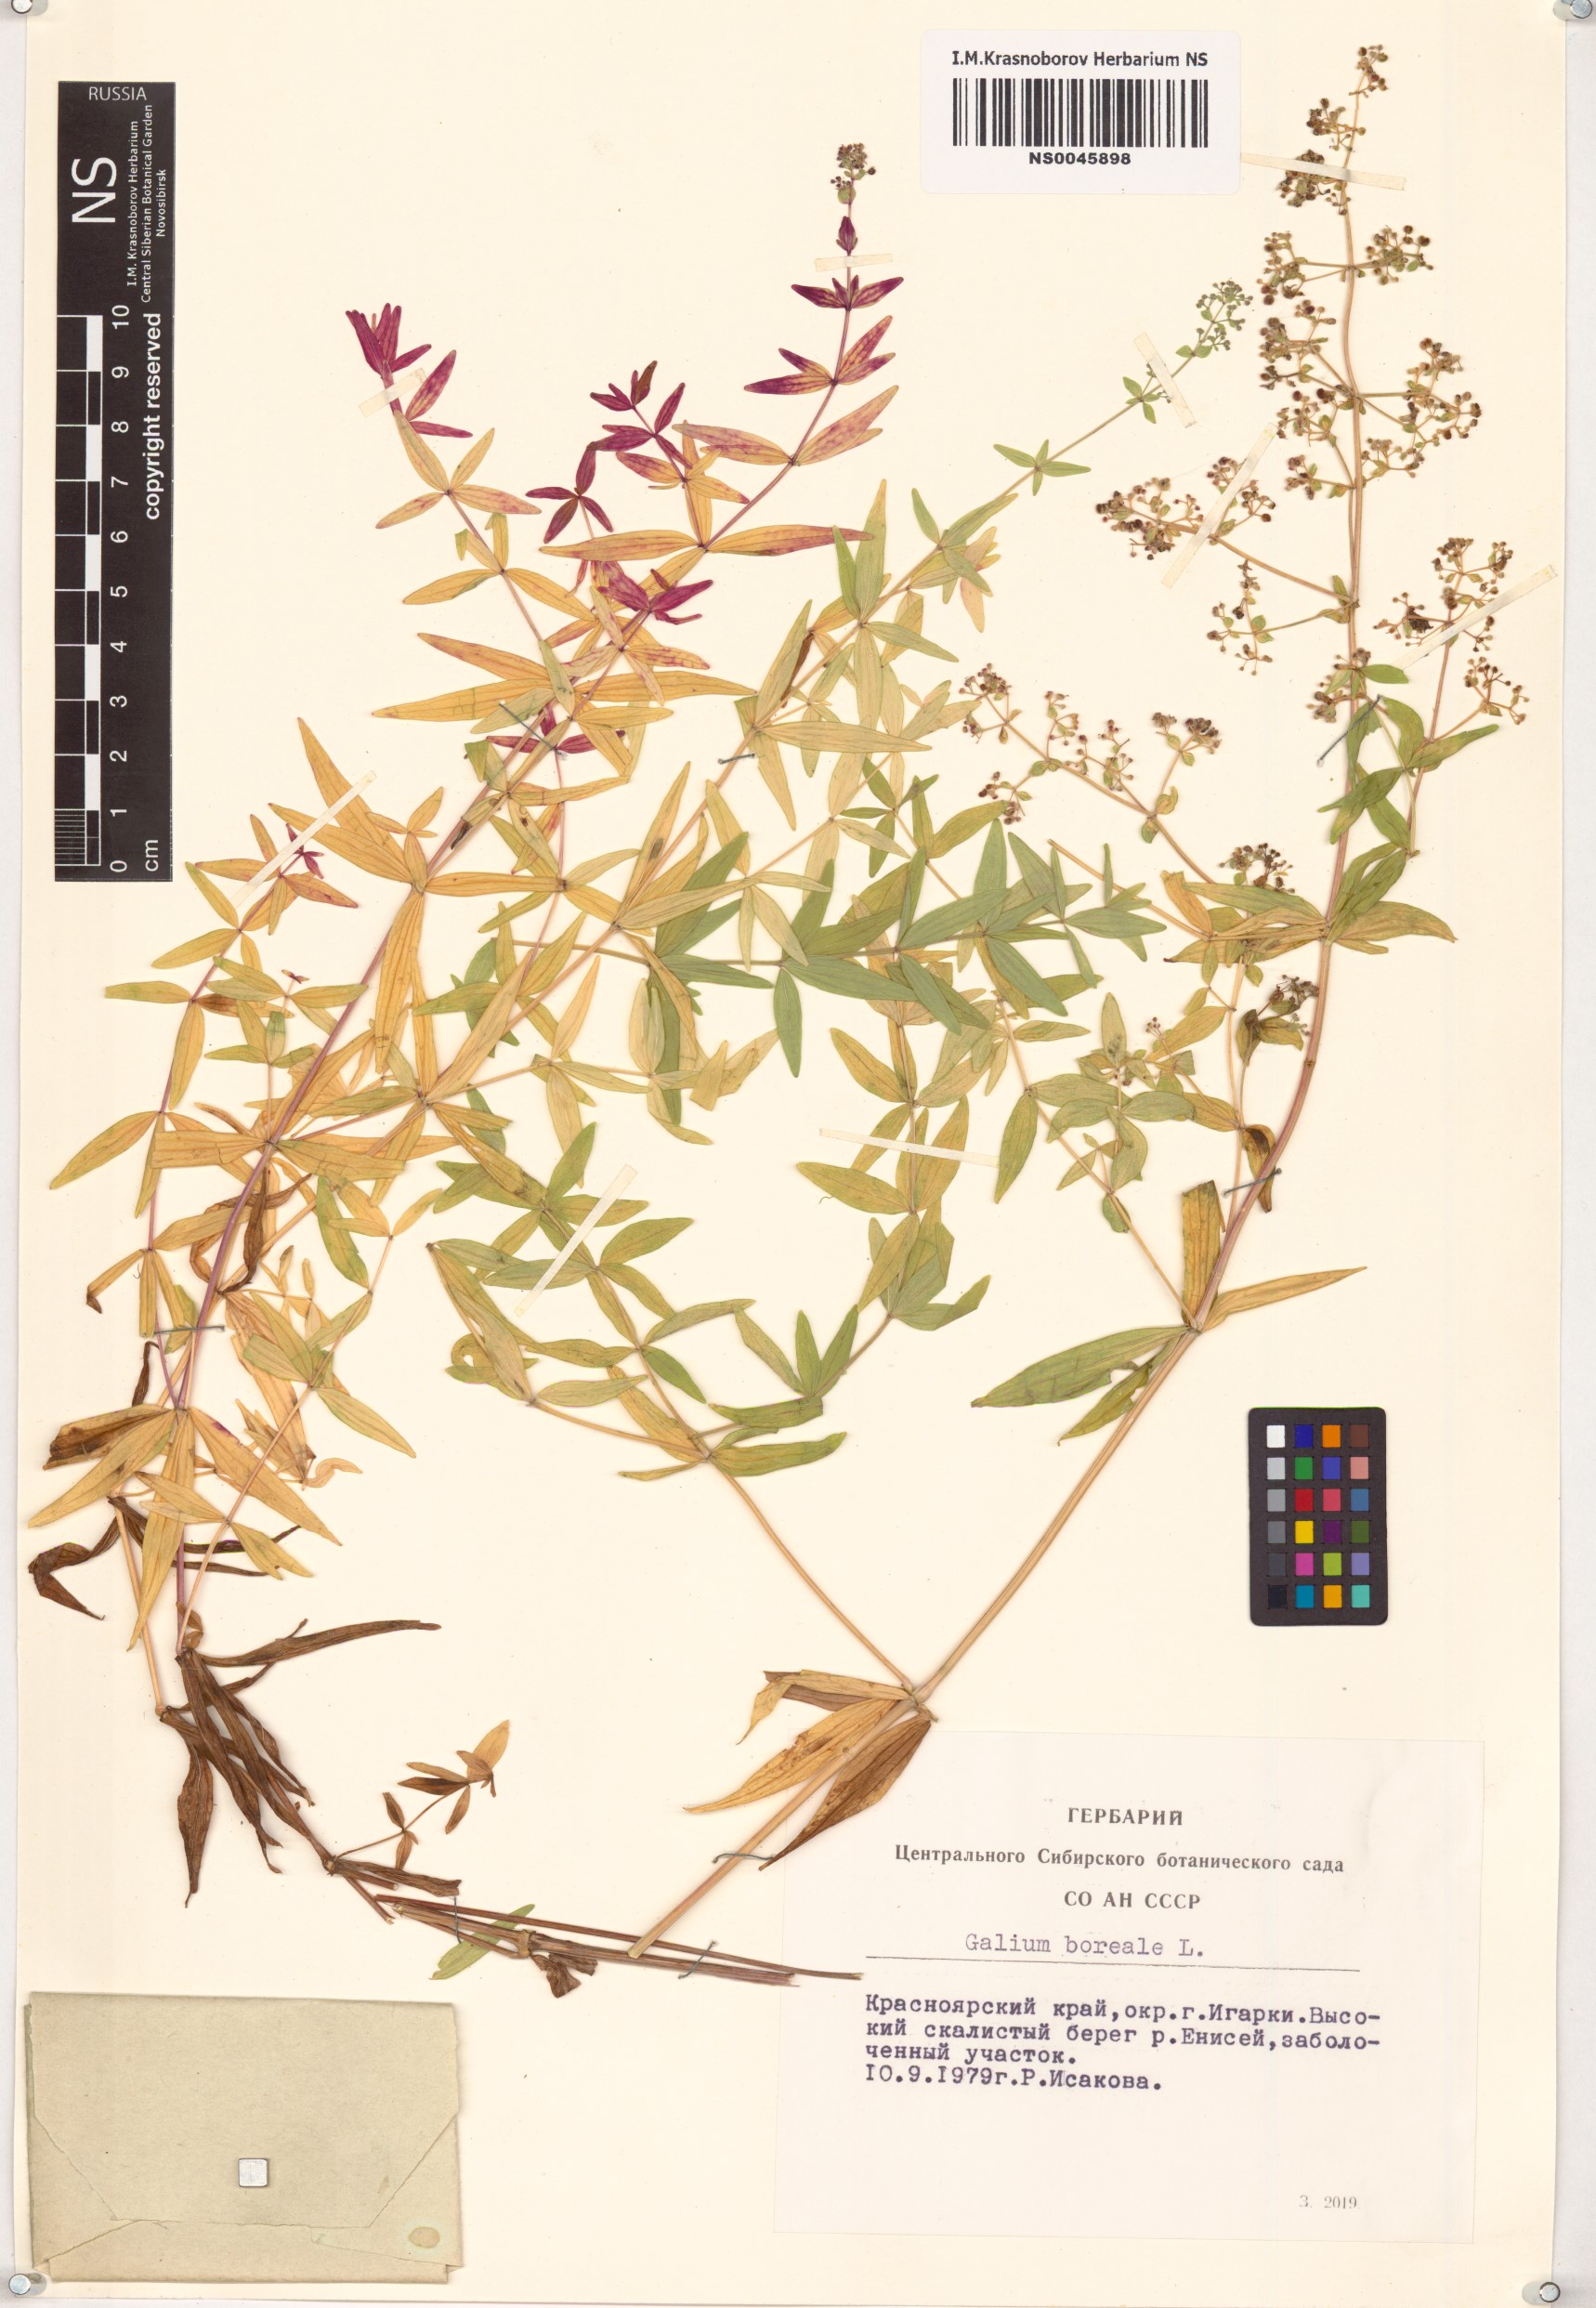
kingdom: Plantae
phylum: Tracheophyta
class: Magnoliopsida
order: Gentianales
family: Rubiaceae
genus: Galium
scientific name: Galium boreale
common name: Northern bedstraw
